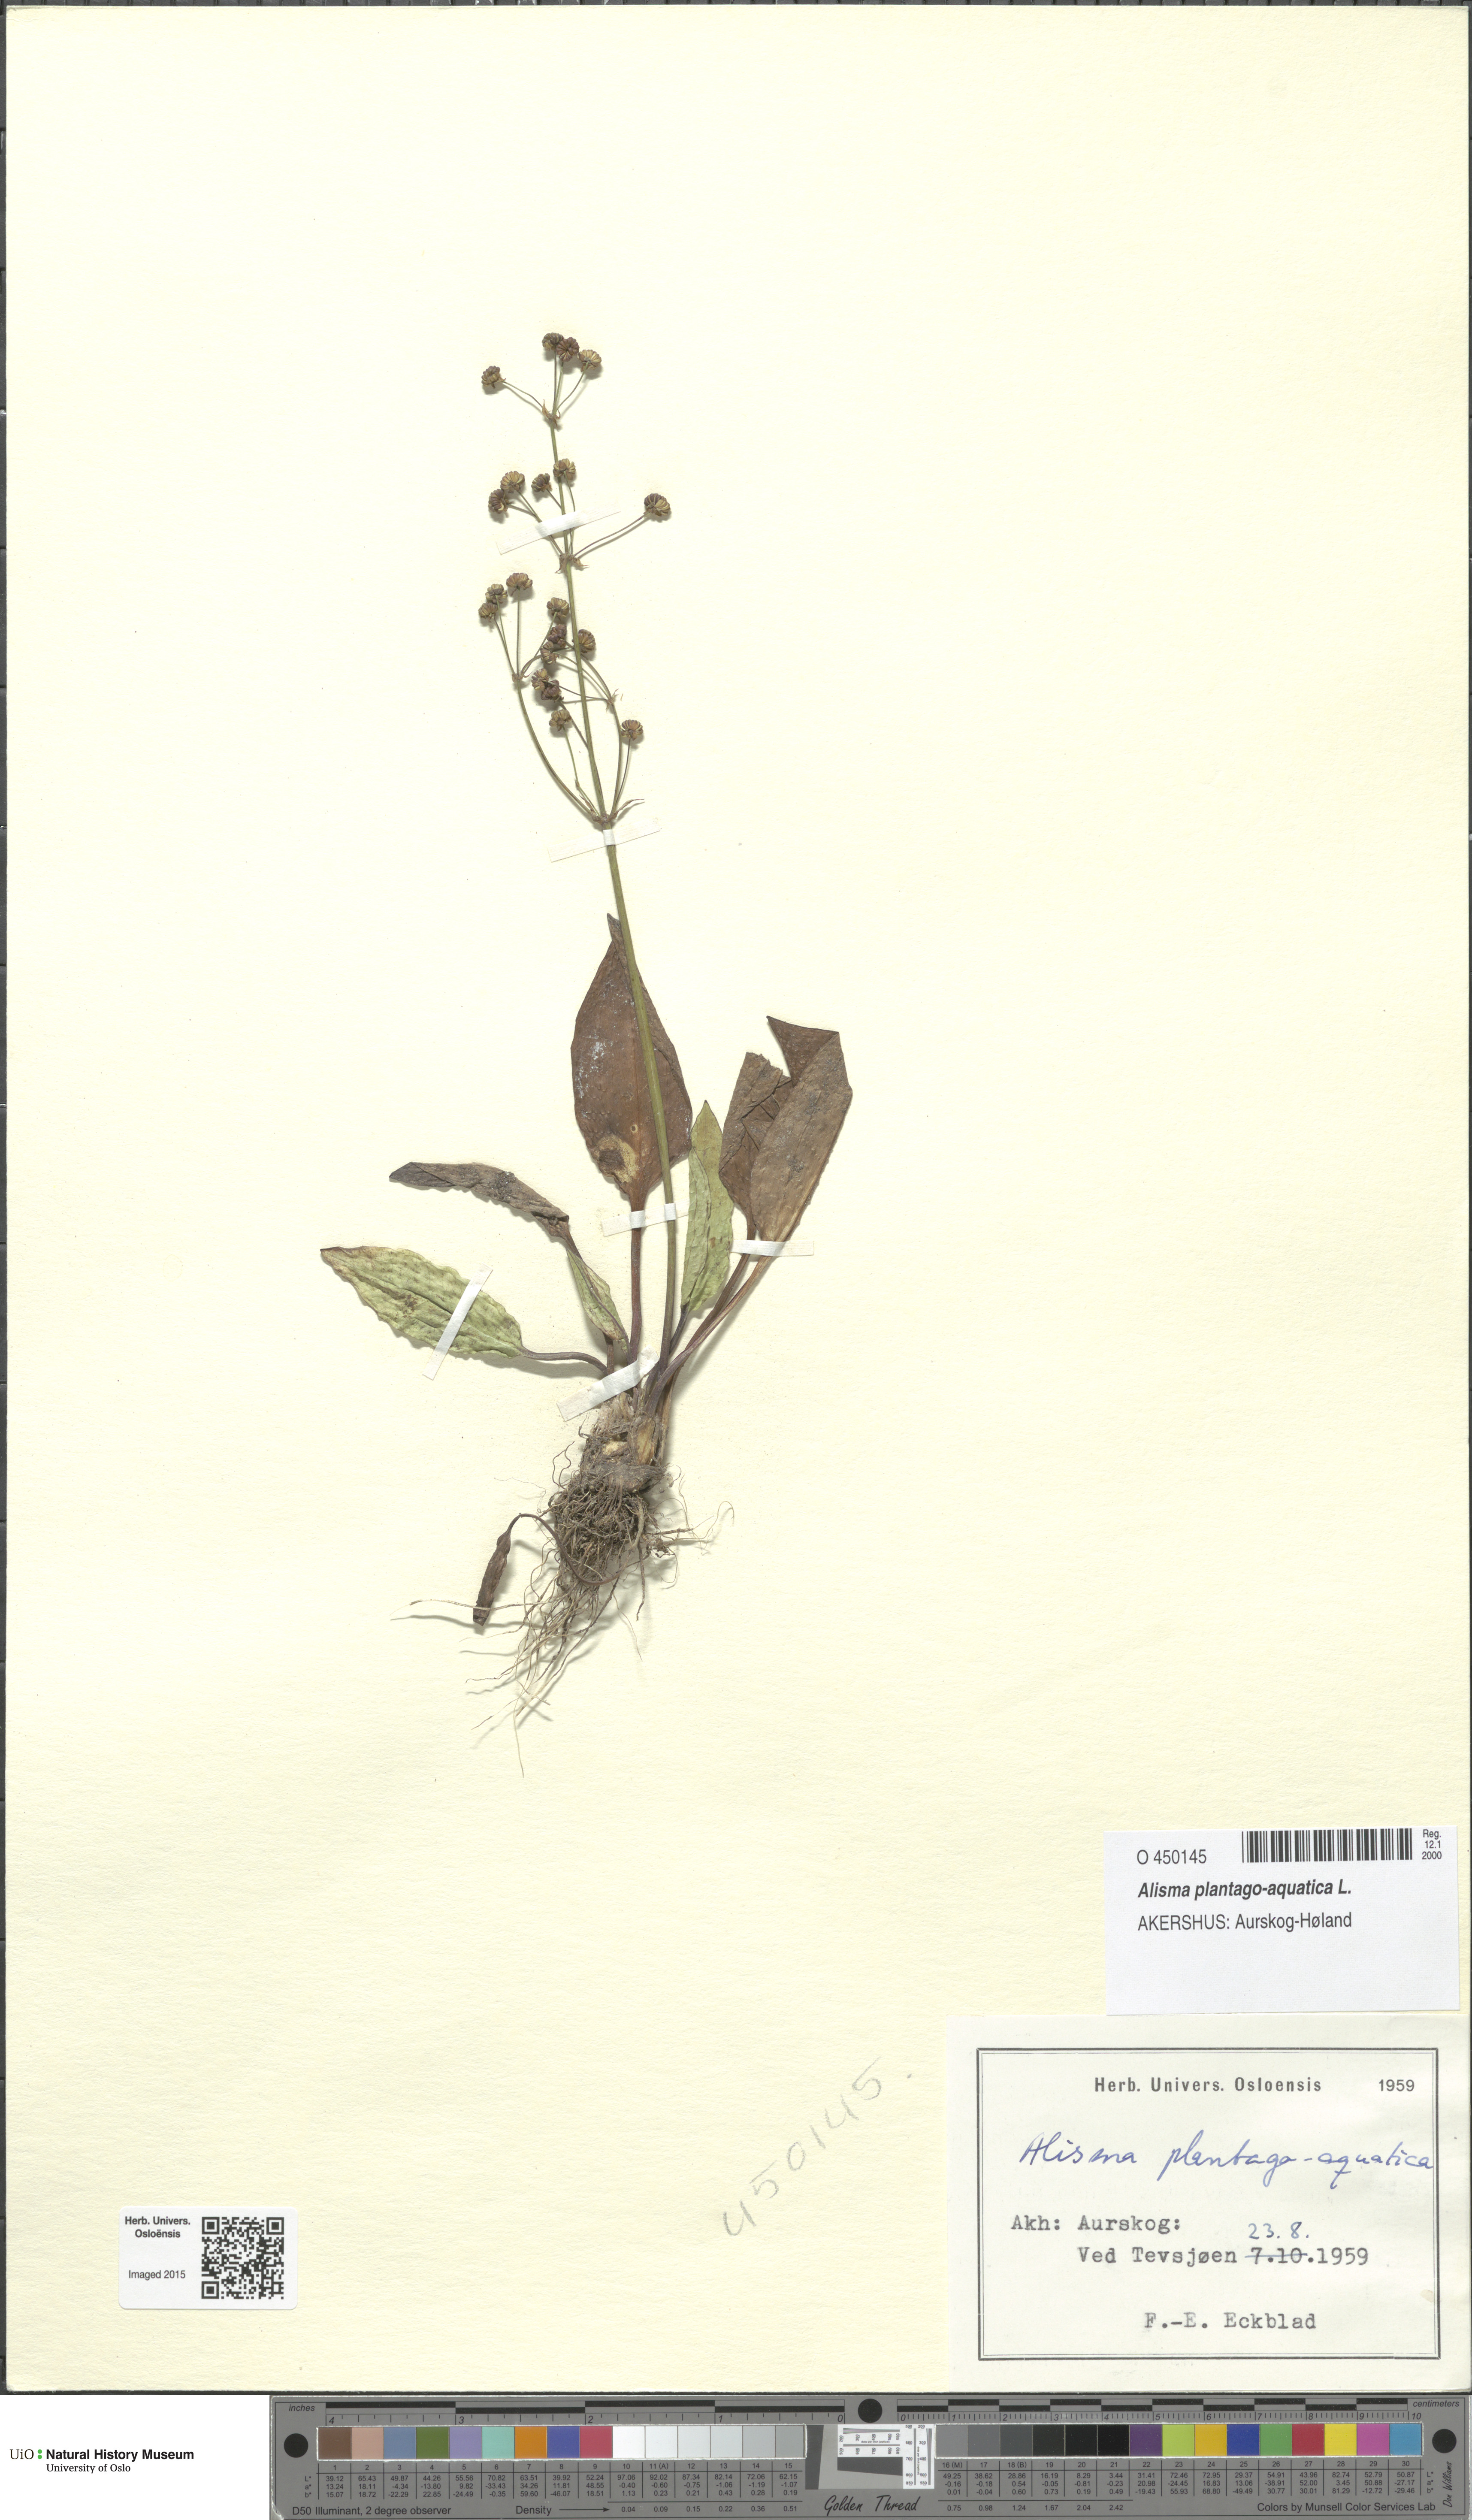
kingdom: Plantae
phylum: Tracheophyta
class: Liliopsida
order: Alismatales
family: Alismataceae
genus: Alisma
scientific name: Alisma plantago-aquatica
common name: Water-plantain
